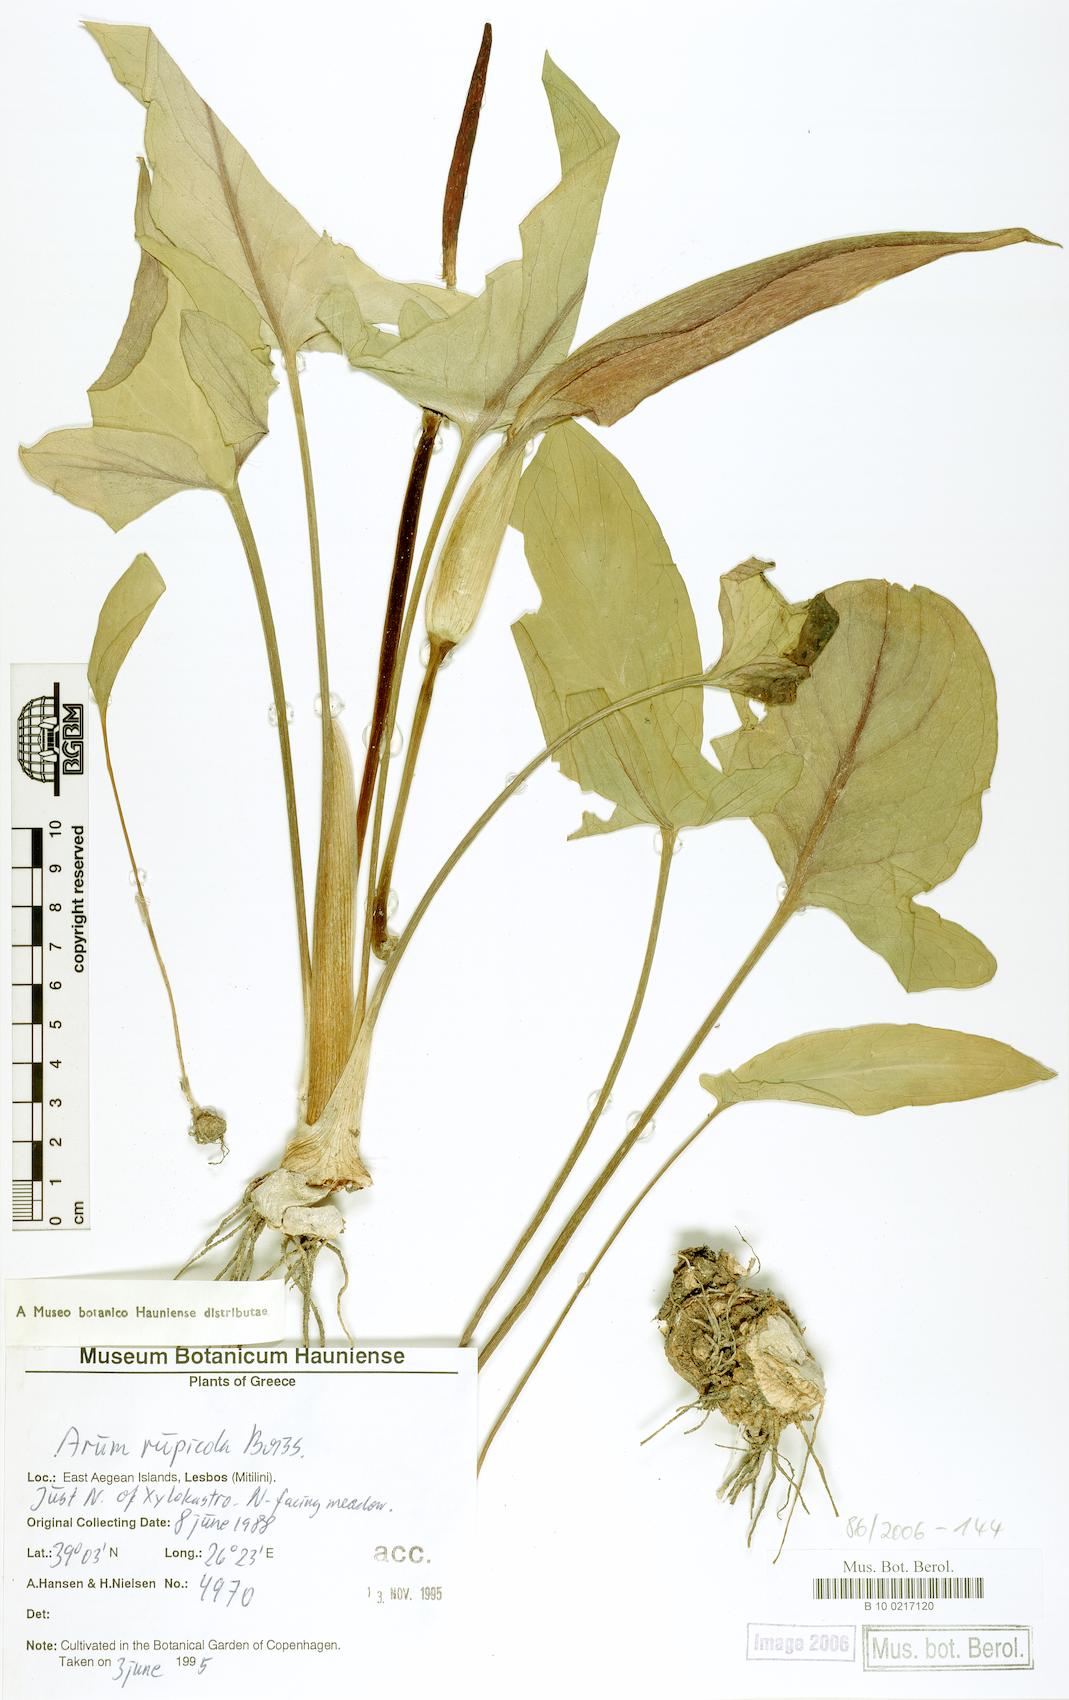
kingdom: Plantae
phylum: Tracheophyta
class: Liliopsida
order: Alismatales
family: Araceae
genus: Arum
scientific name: Arum rupicola
